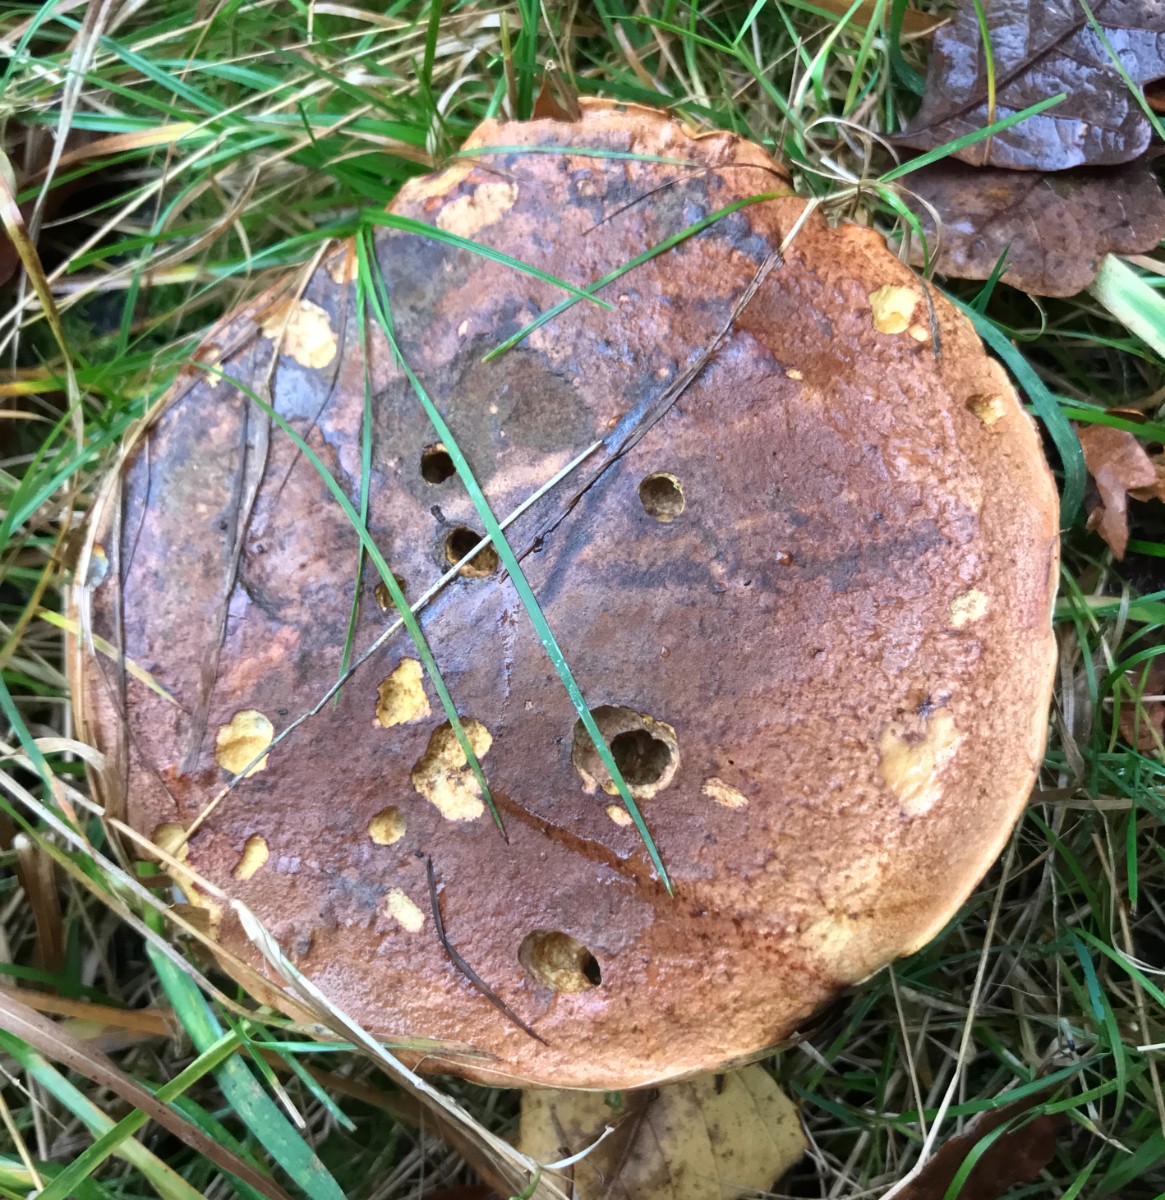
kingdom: Fungi
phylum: Basidiomycota
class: Agaricomycetes
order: Boletales
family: Boletaceae
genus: Neoboletus
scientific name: Neoboletus erythropus
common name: punktstokket indigorørhat
